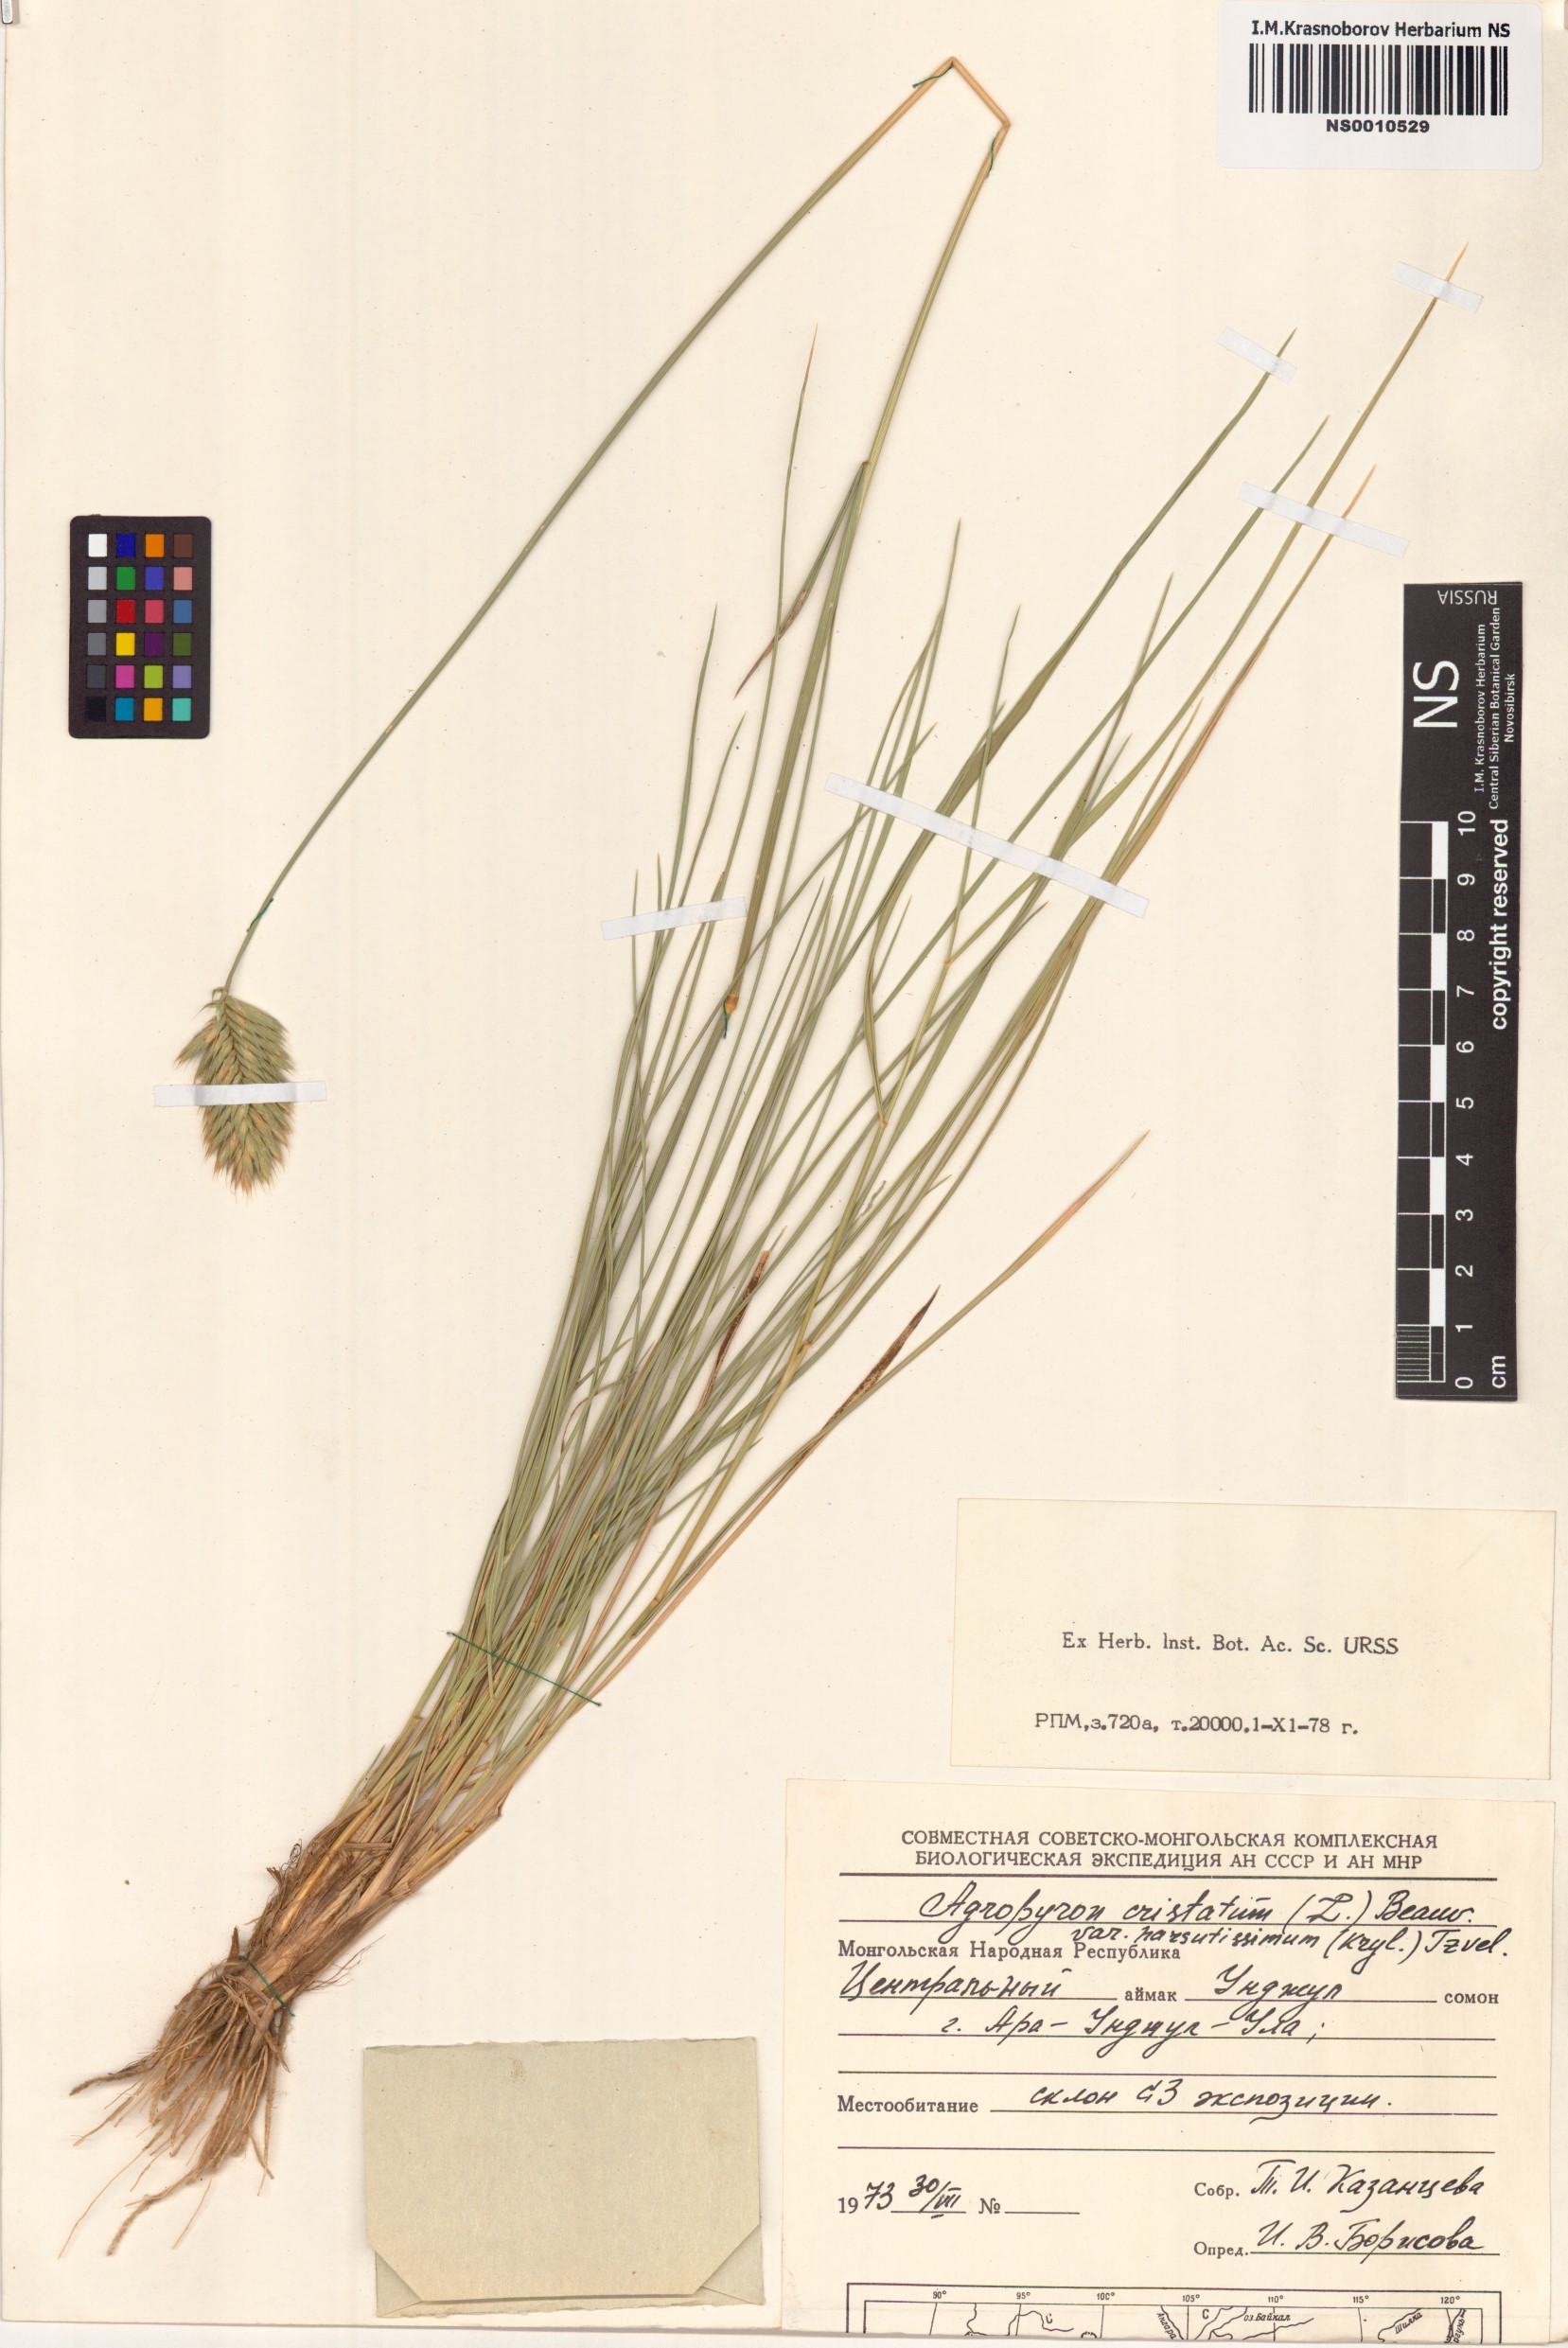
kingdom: Plantae
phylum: Tracheophyta
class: Liliopsida
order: Poales
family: Poaceae
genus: Agropyron
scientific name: Agropyron cristatum
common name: Crested wheatgrass
